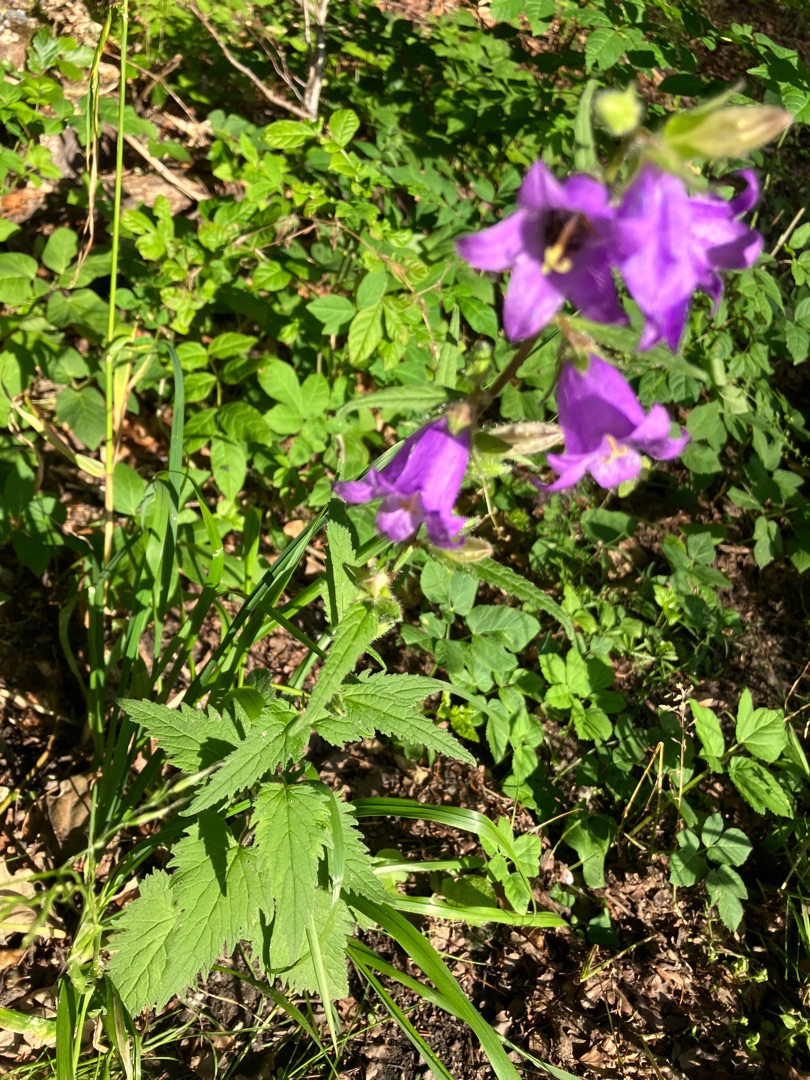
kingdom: Plantae
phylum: Tracheophyta
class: Magnoliopsida
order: Asterales
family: Campanulaceae
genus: Campanula
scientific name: Campanula trachelium
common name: Nælde-klokke
